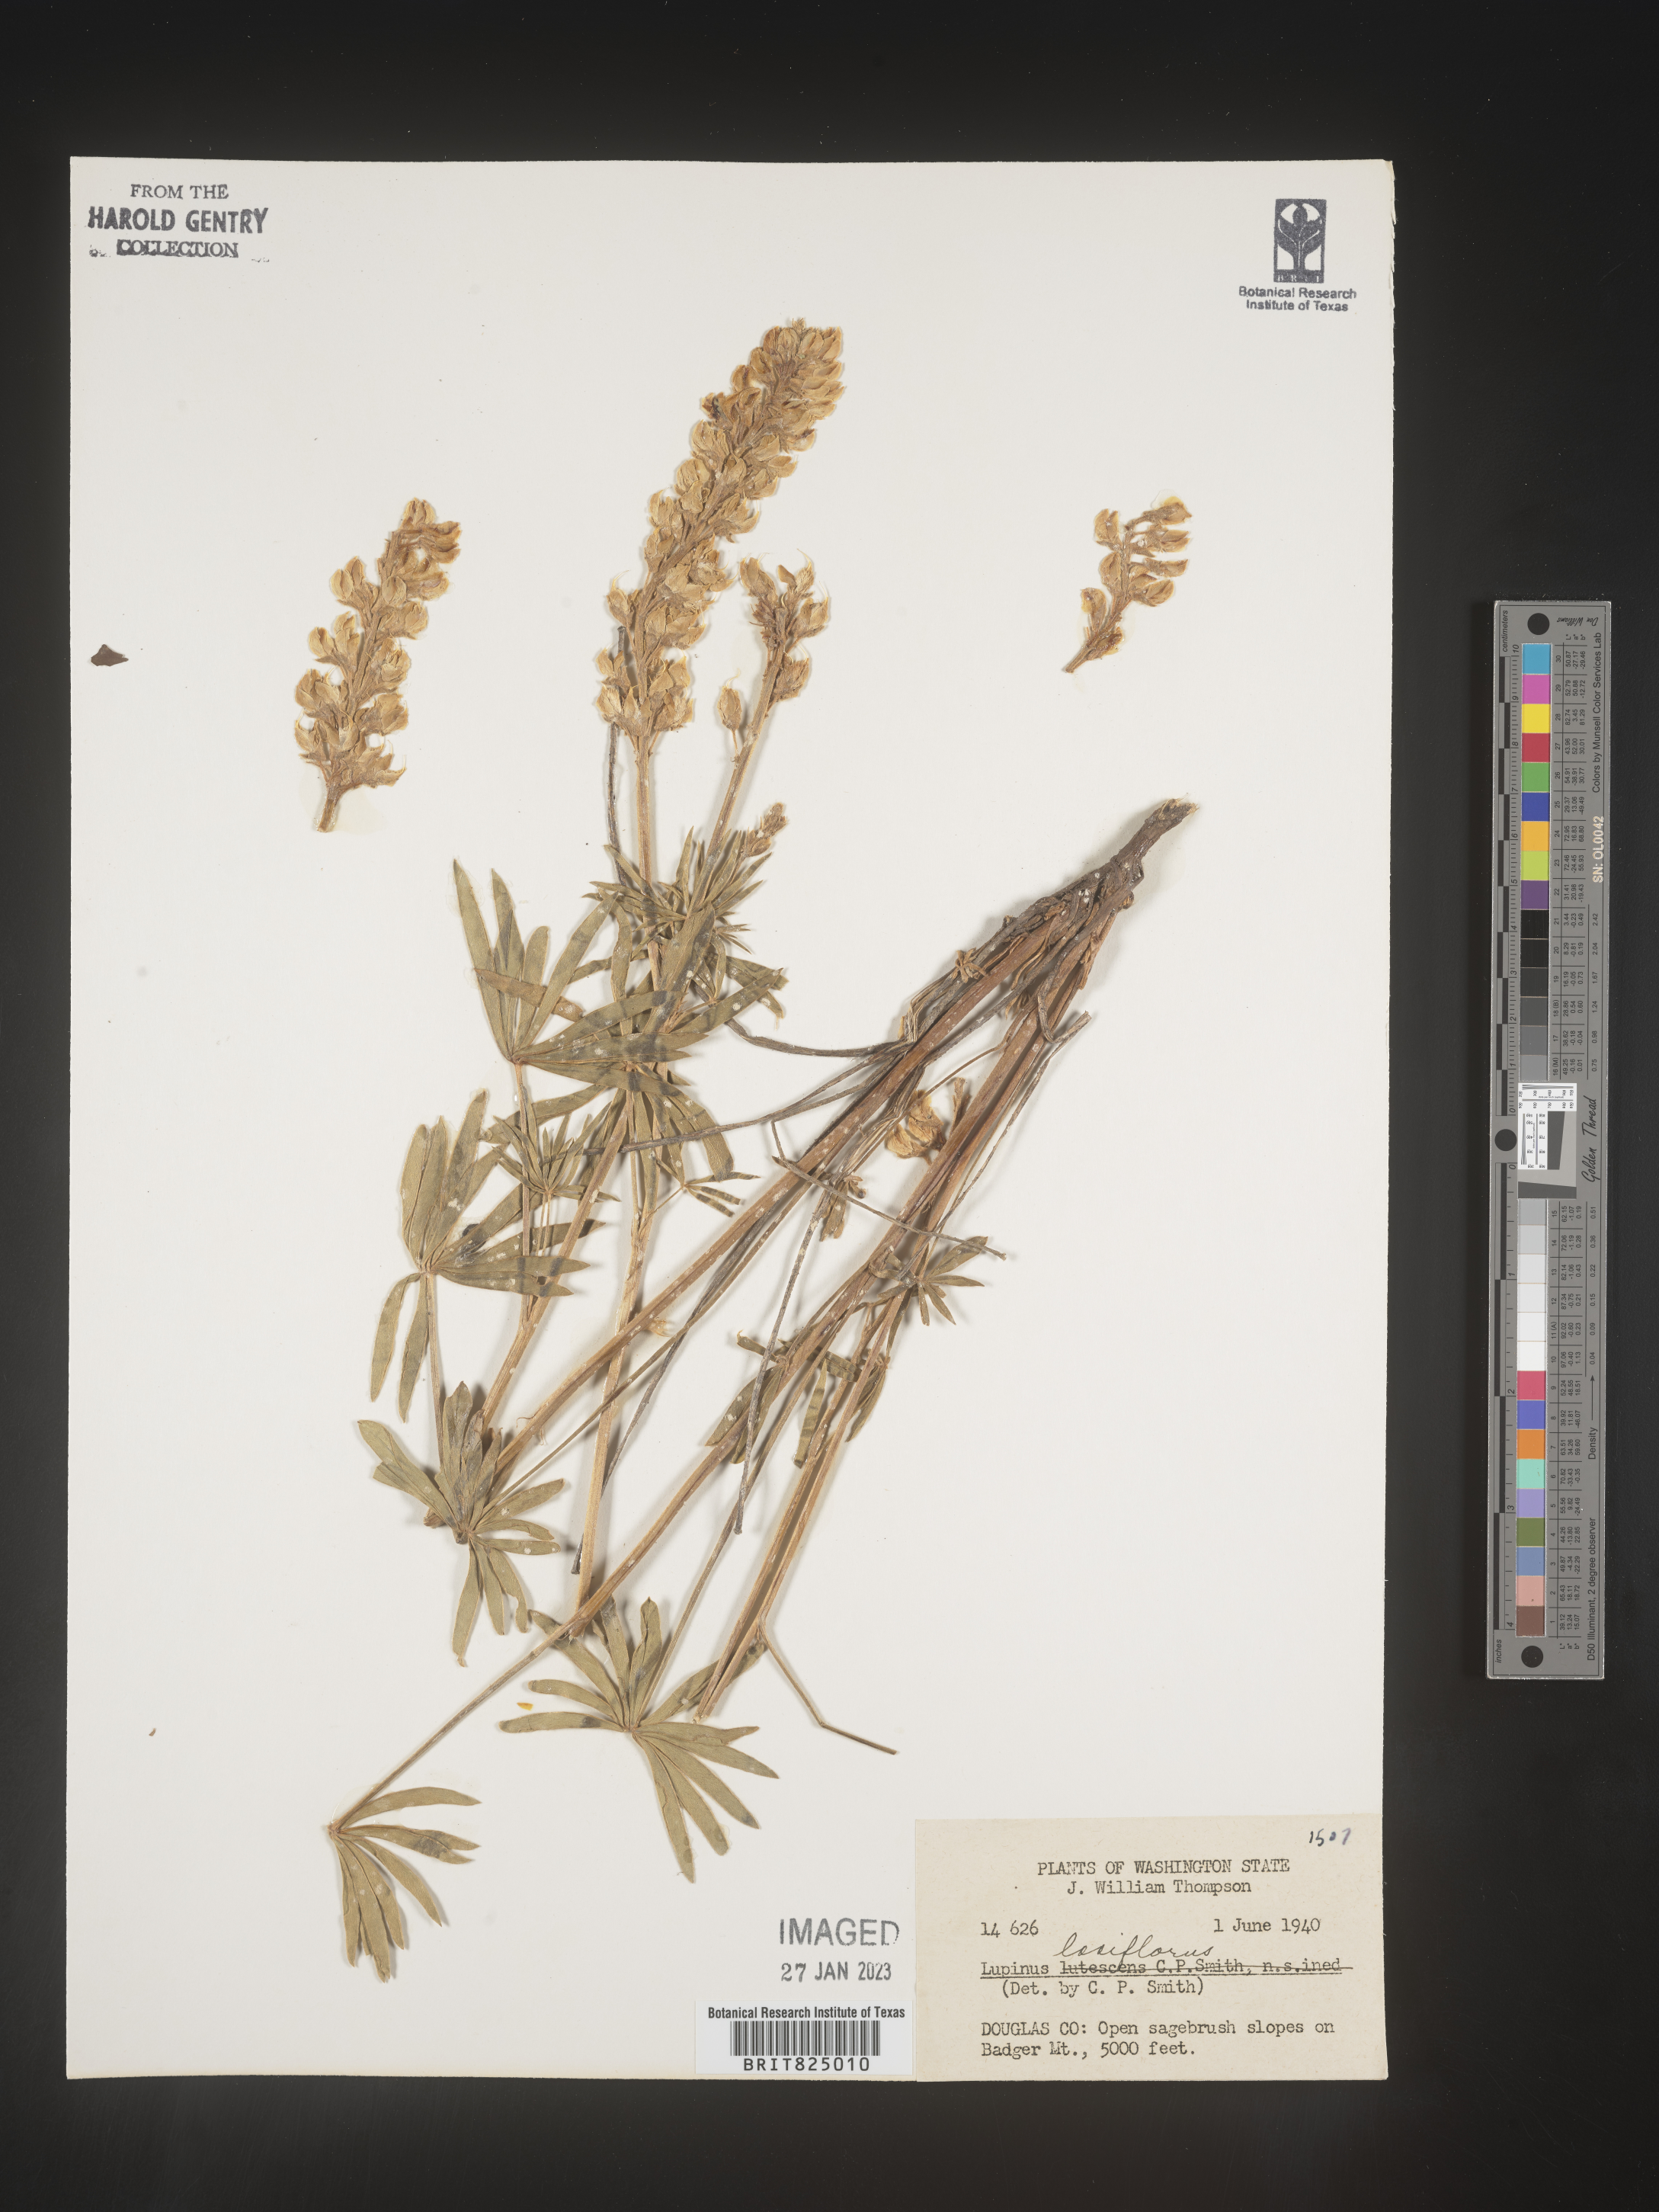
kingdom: Plantae
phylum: Tracheophyta
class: Magnoliopsida
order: Fabales
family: Fabaceae
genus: Lupinus
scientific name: Lupinus
